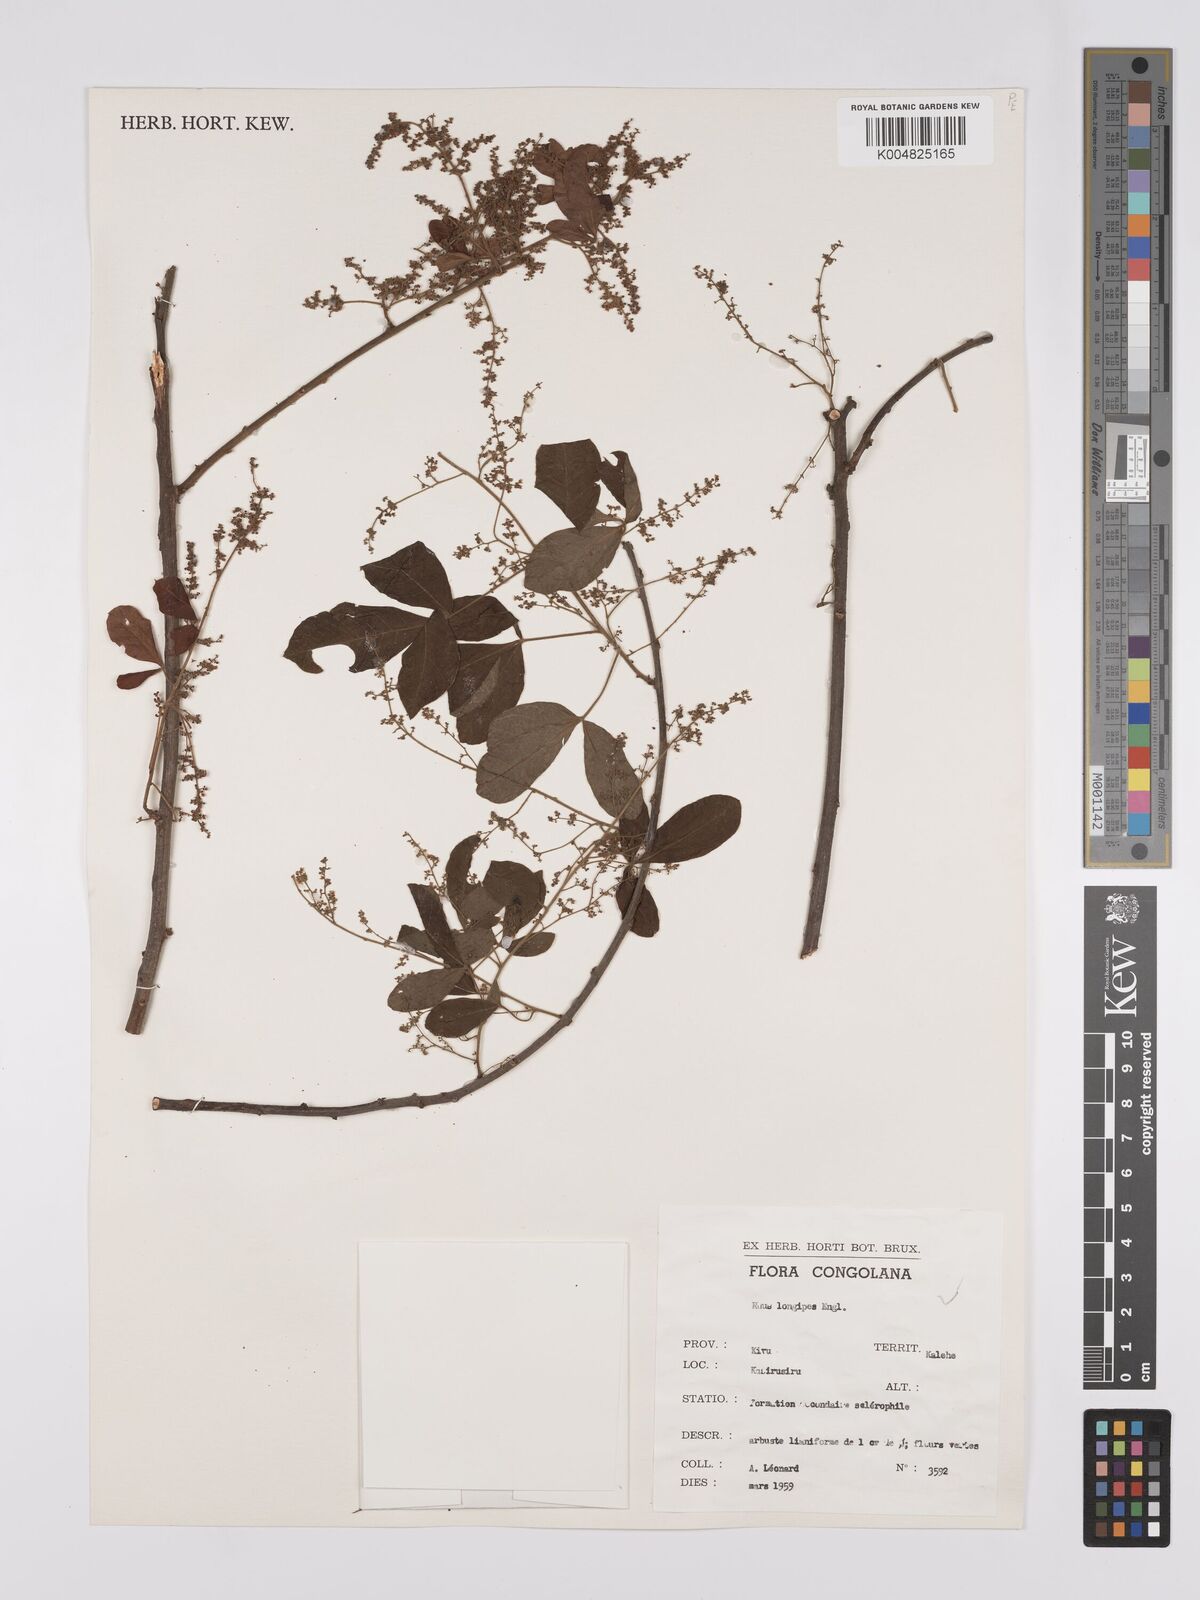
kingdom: Plantae
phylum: Tracheophyta
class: Magnoliopsida
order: Sapindales
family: Anacardiaceae
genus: Searsia
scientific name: Searsia longipes
